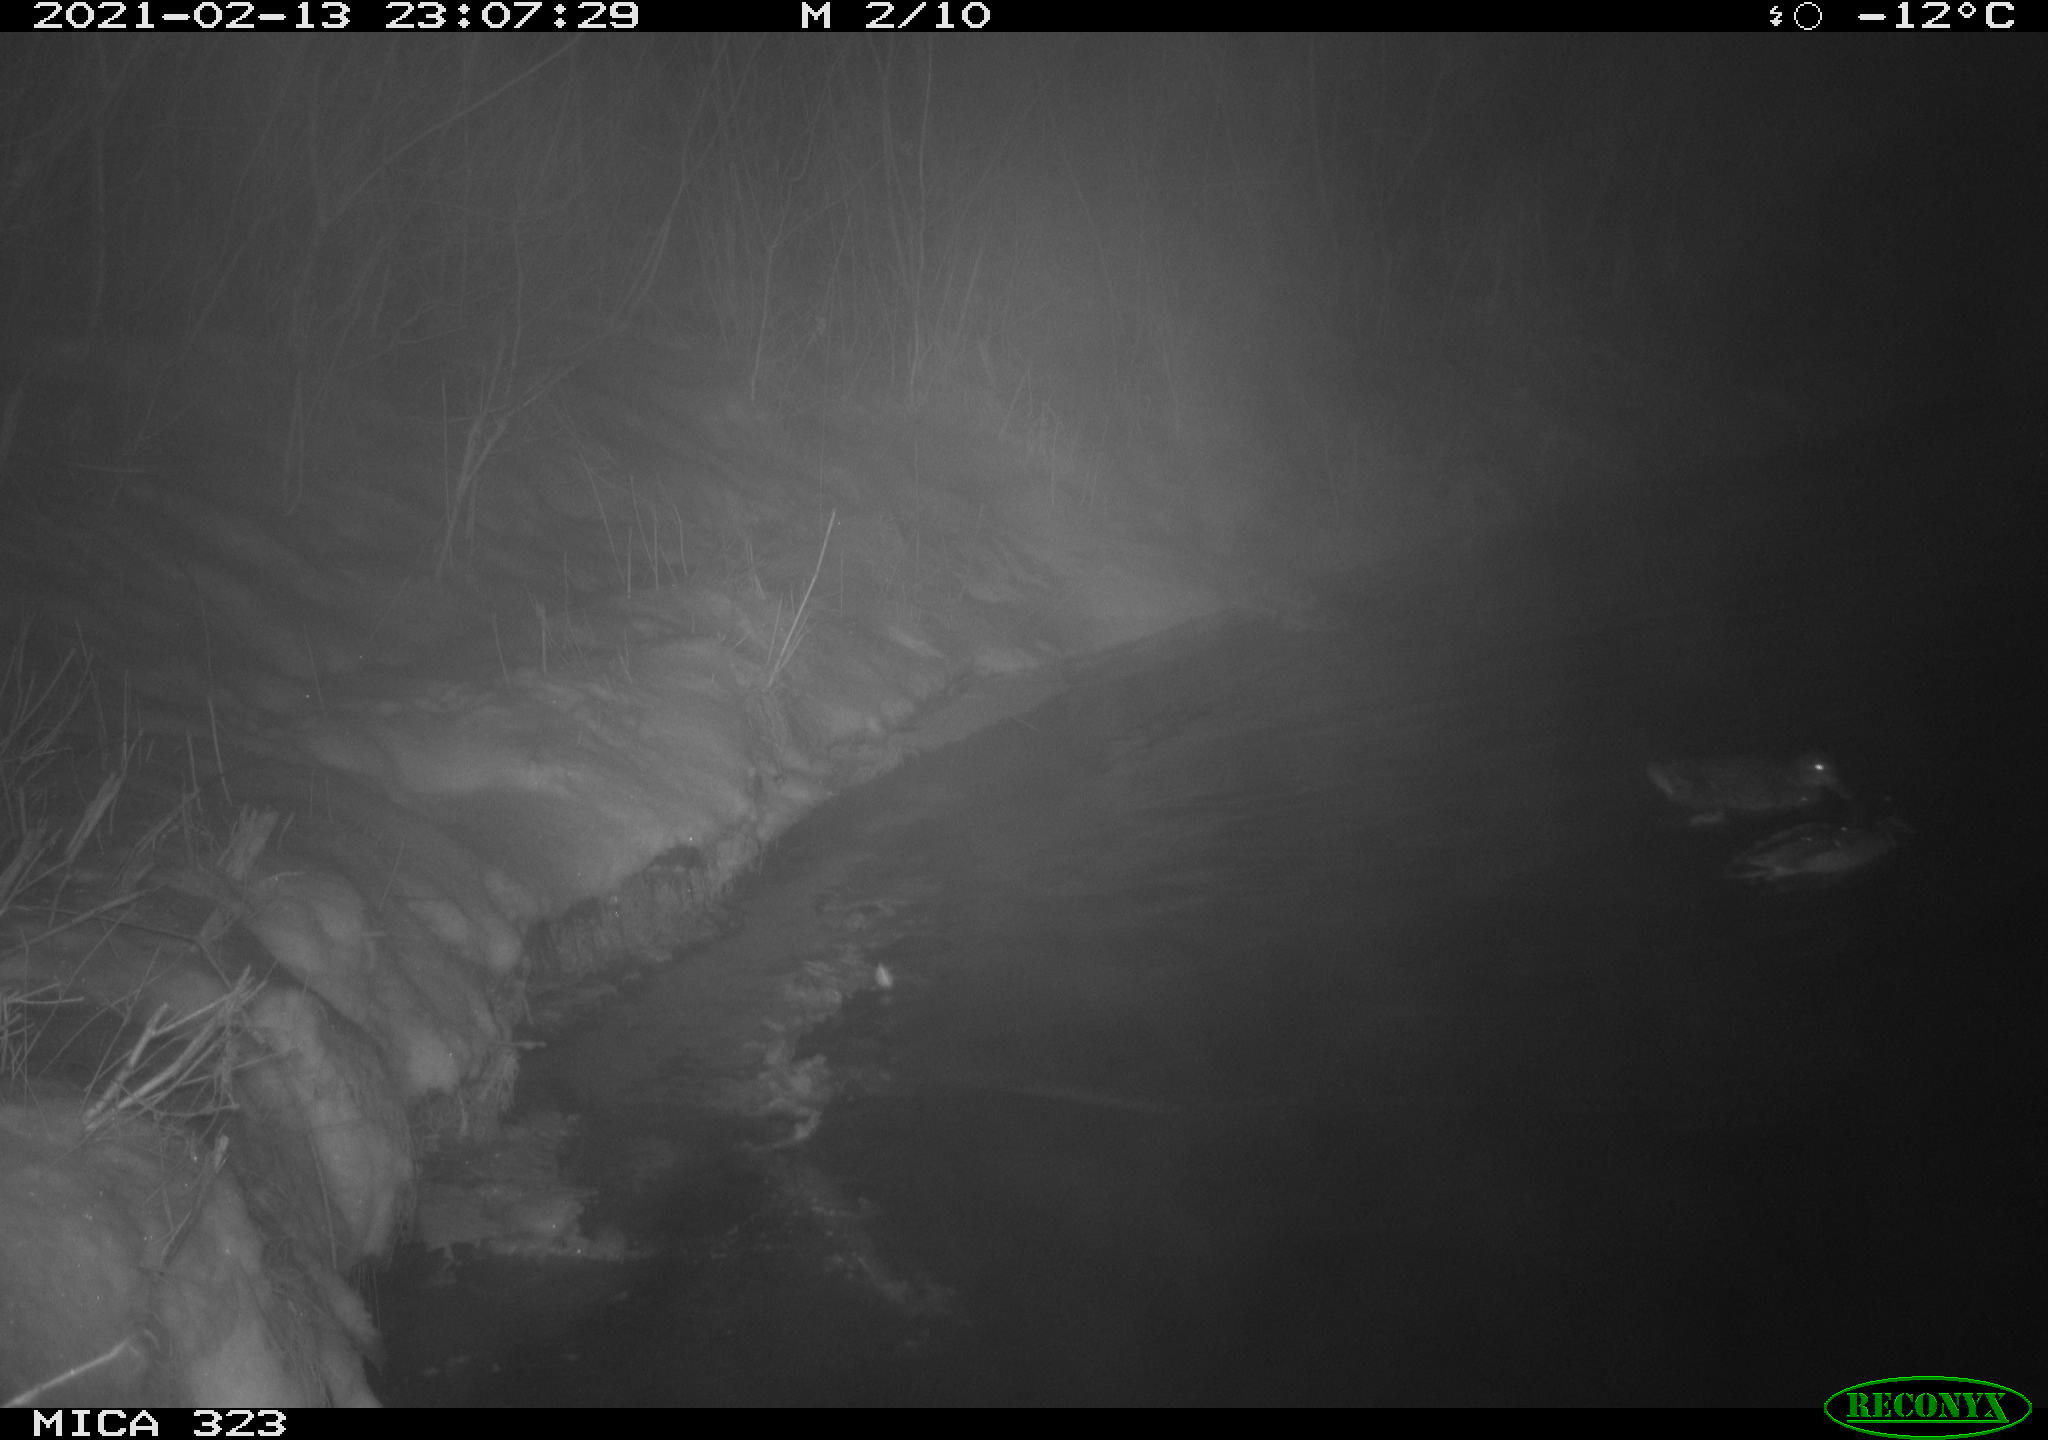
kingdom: Animalia
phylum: Chordata
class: Aves
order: Anseriformes
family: Anatidae
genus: Anas
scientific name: Anas platyrhynchos
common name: Mallard
